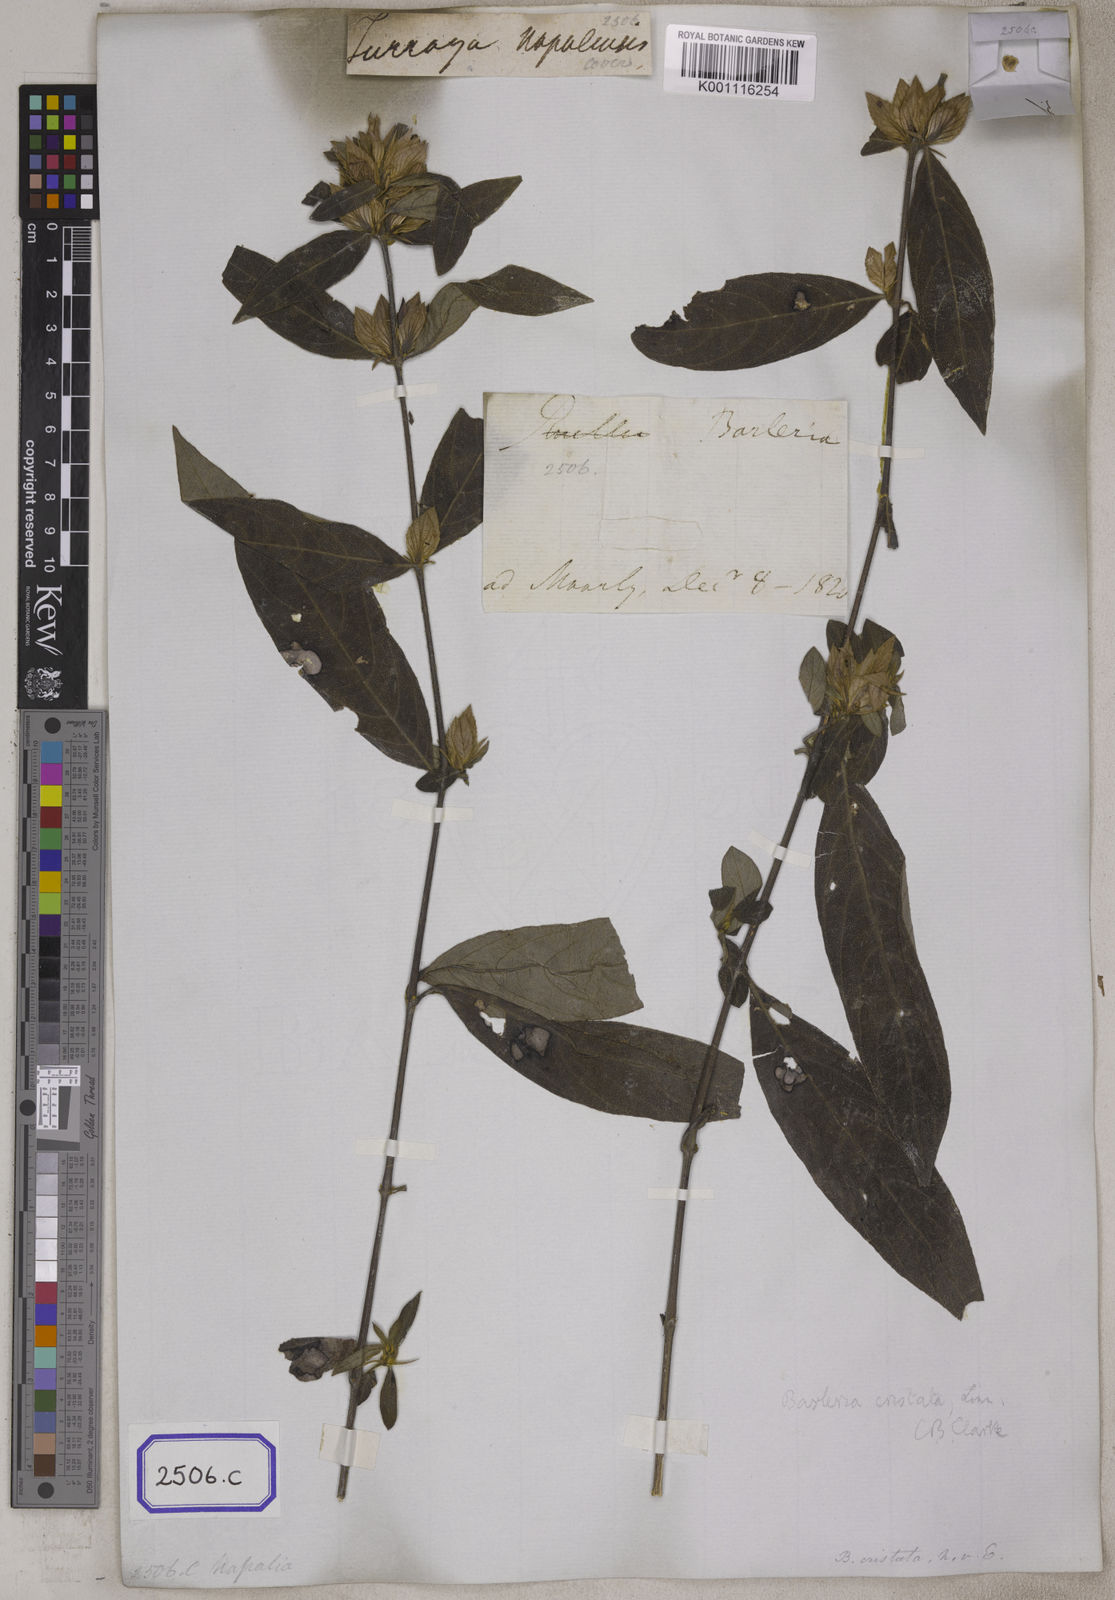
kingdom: Plantae
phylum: Tracheophyta
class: Magnoliopsida
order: Lamiales
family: Acanthaceae
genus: Barleria
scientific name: Barleria cristata
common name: Crested philippine violet
